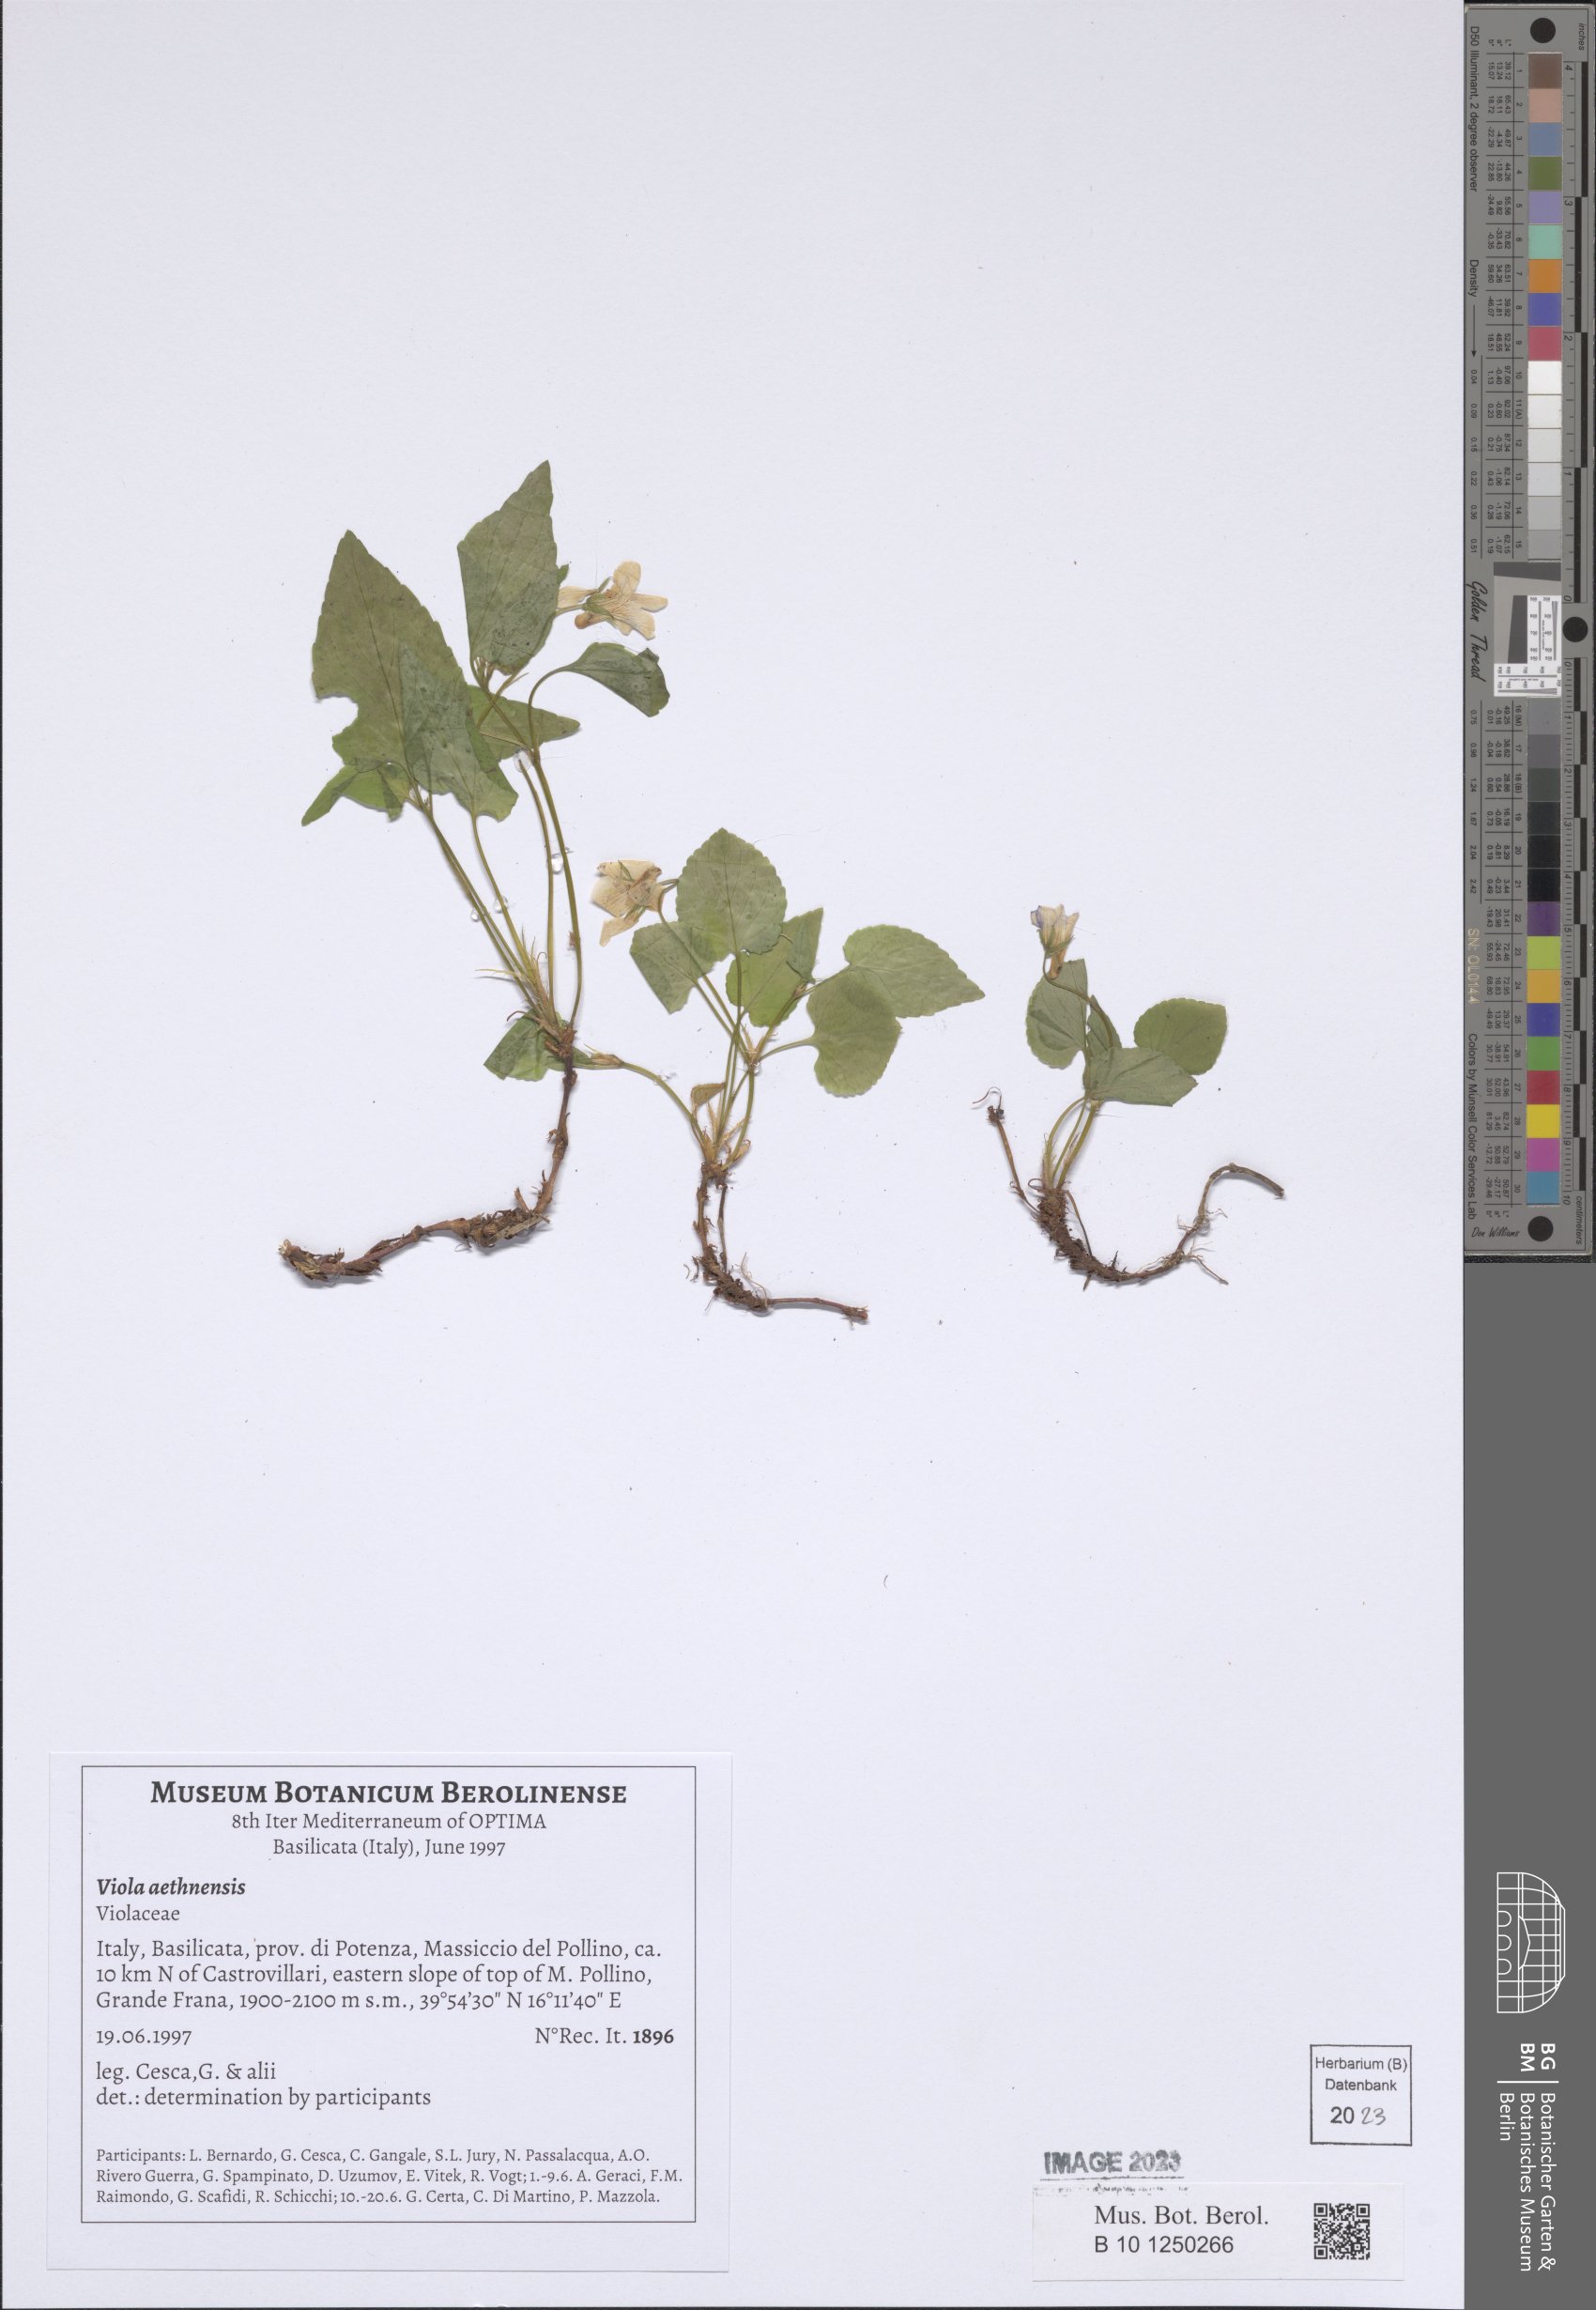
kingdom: Plantae
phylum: Tracheophyta
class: Magnoliopsida
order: Malpighiales
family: Violaceae
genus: Viola
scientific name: Viola aethnensis
